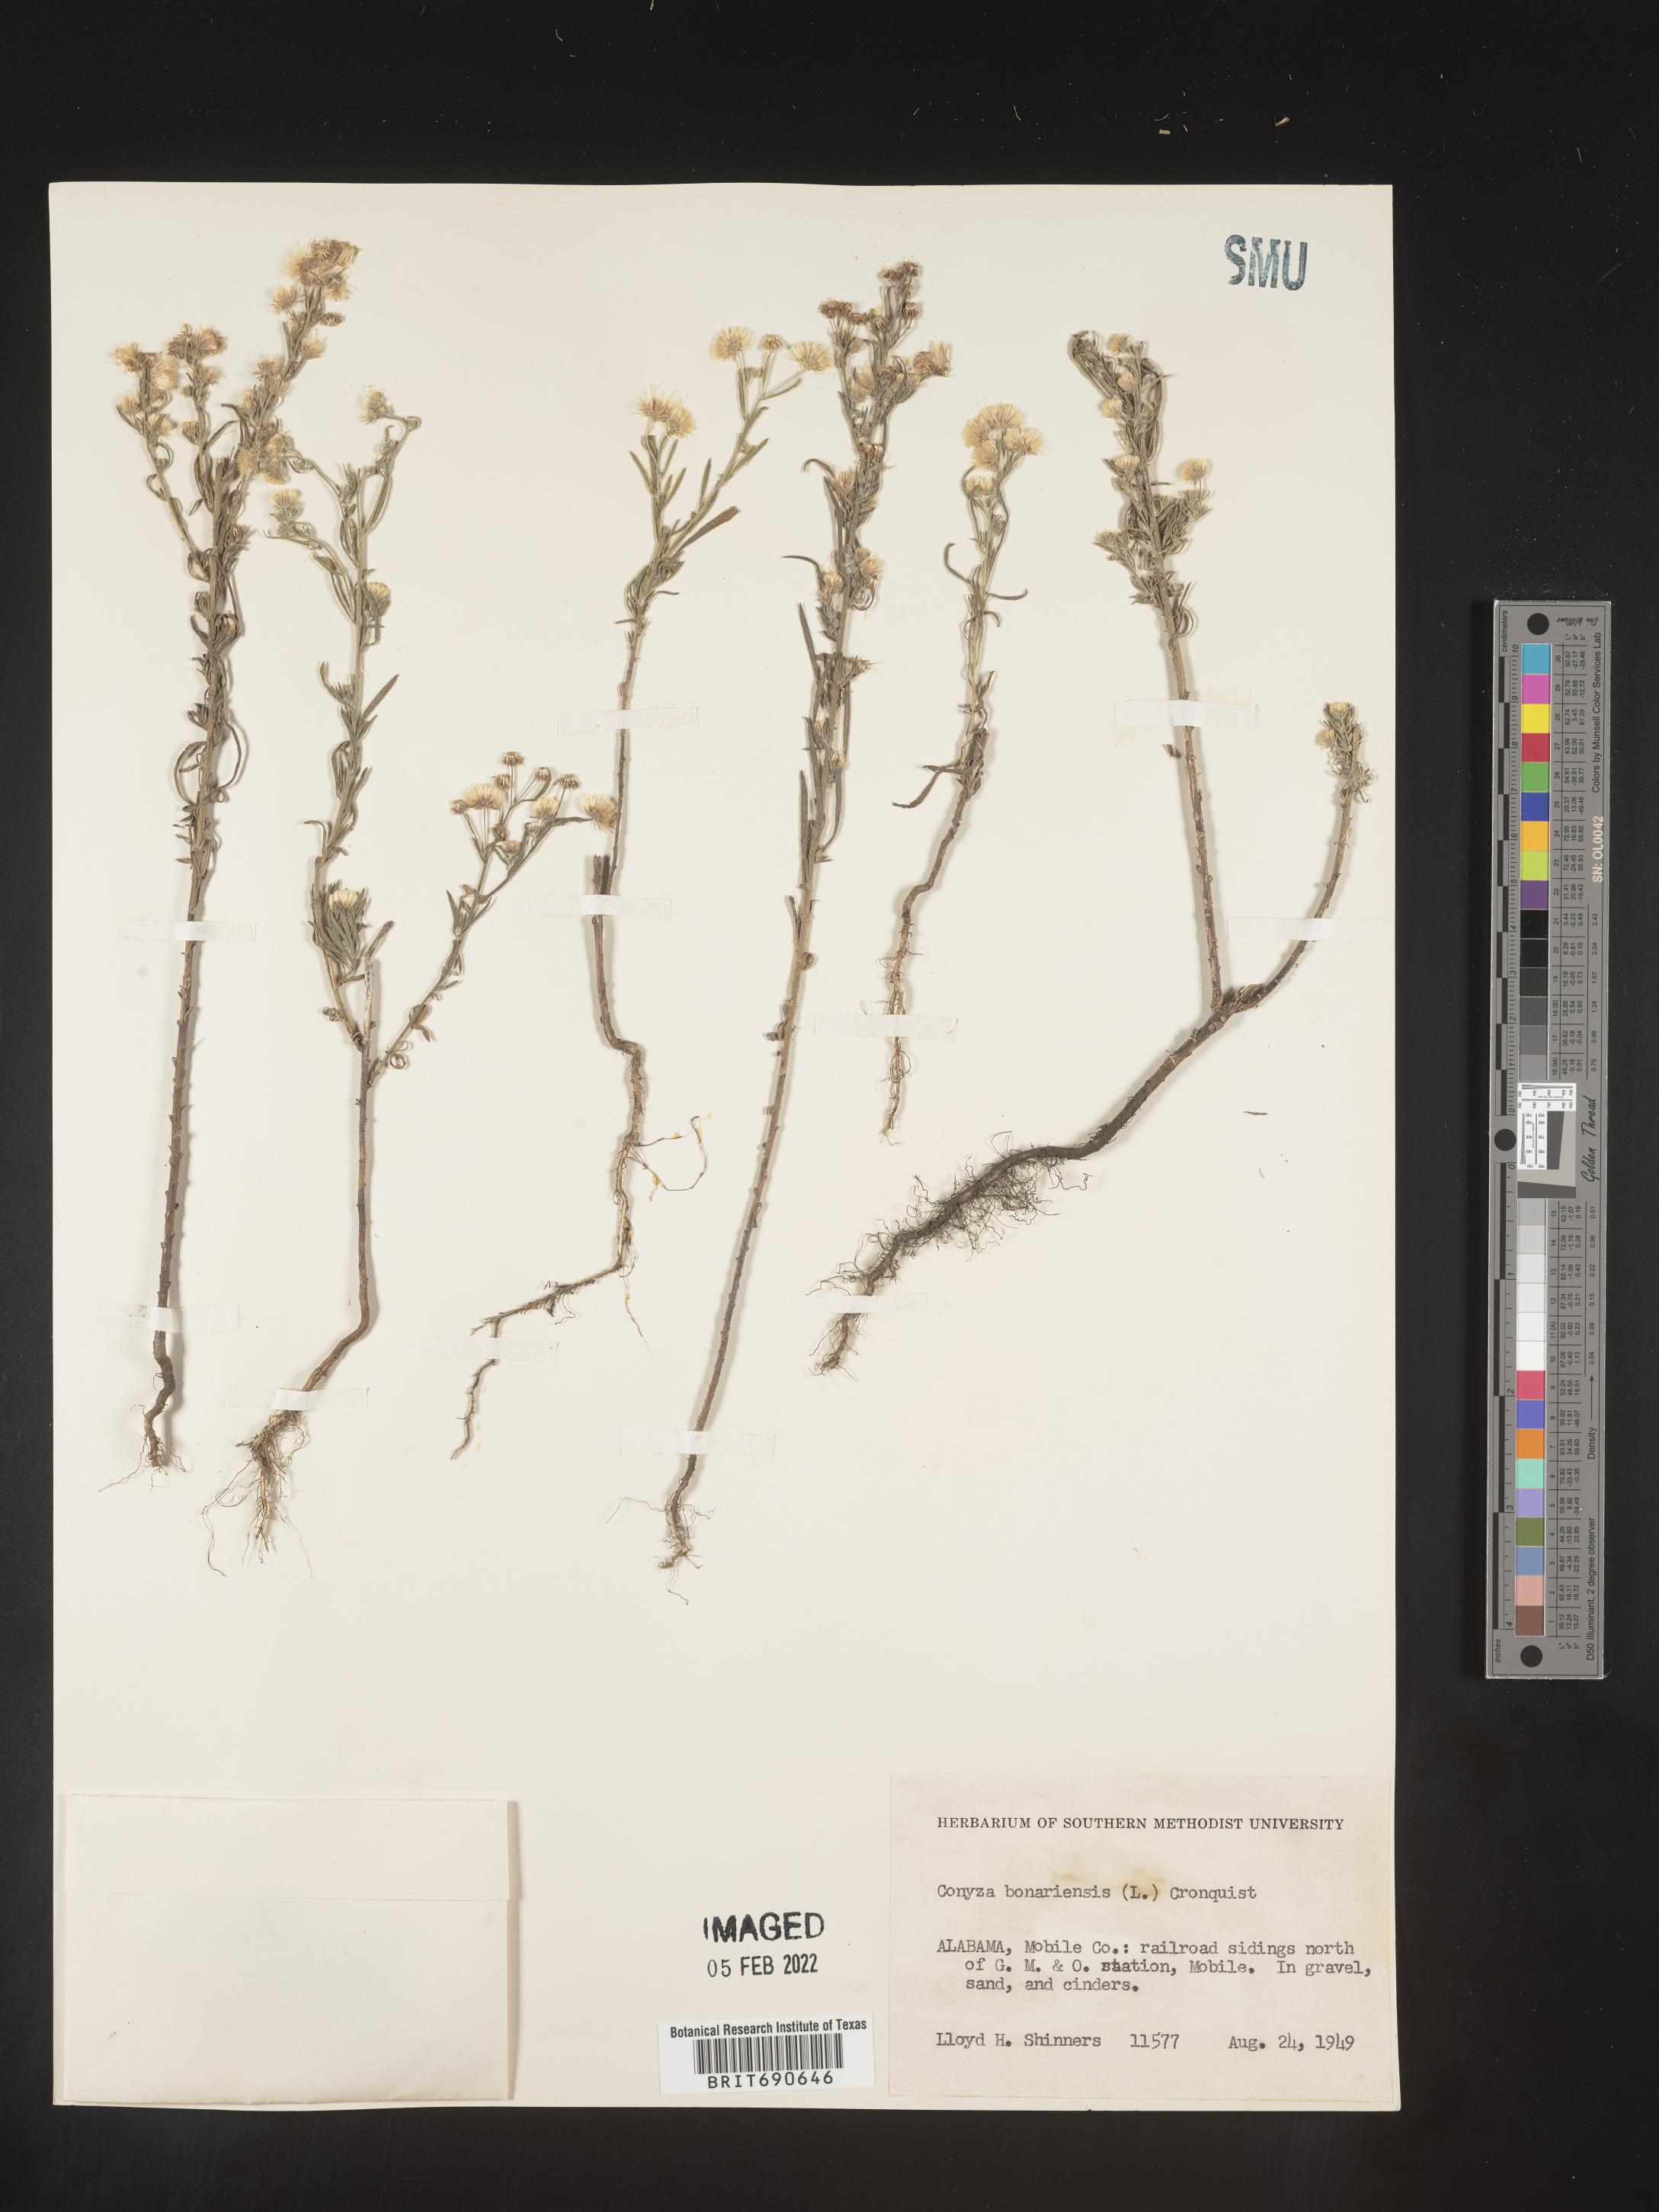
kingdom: Plantae
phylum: Tracheophyta
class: Magnoliopsida
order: Asterales
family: Asteraceae
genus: Erigeron
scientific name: Erigeron bonariensis
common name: Argentine fleabane
